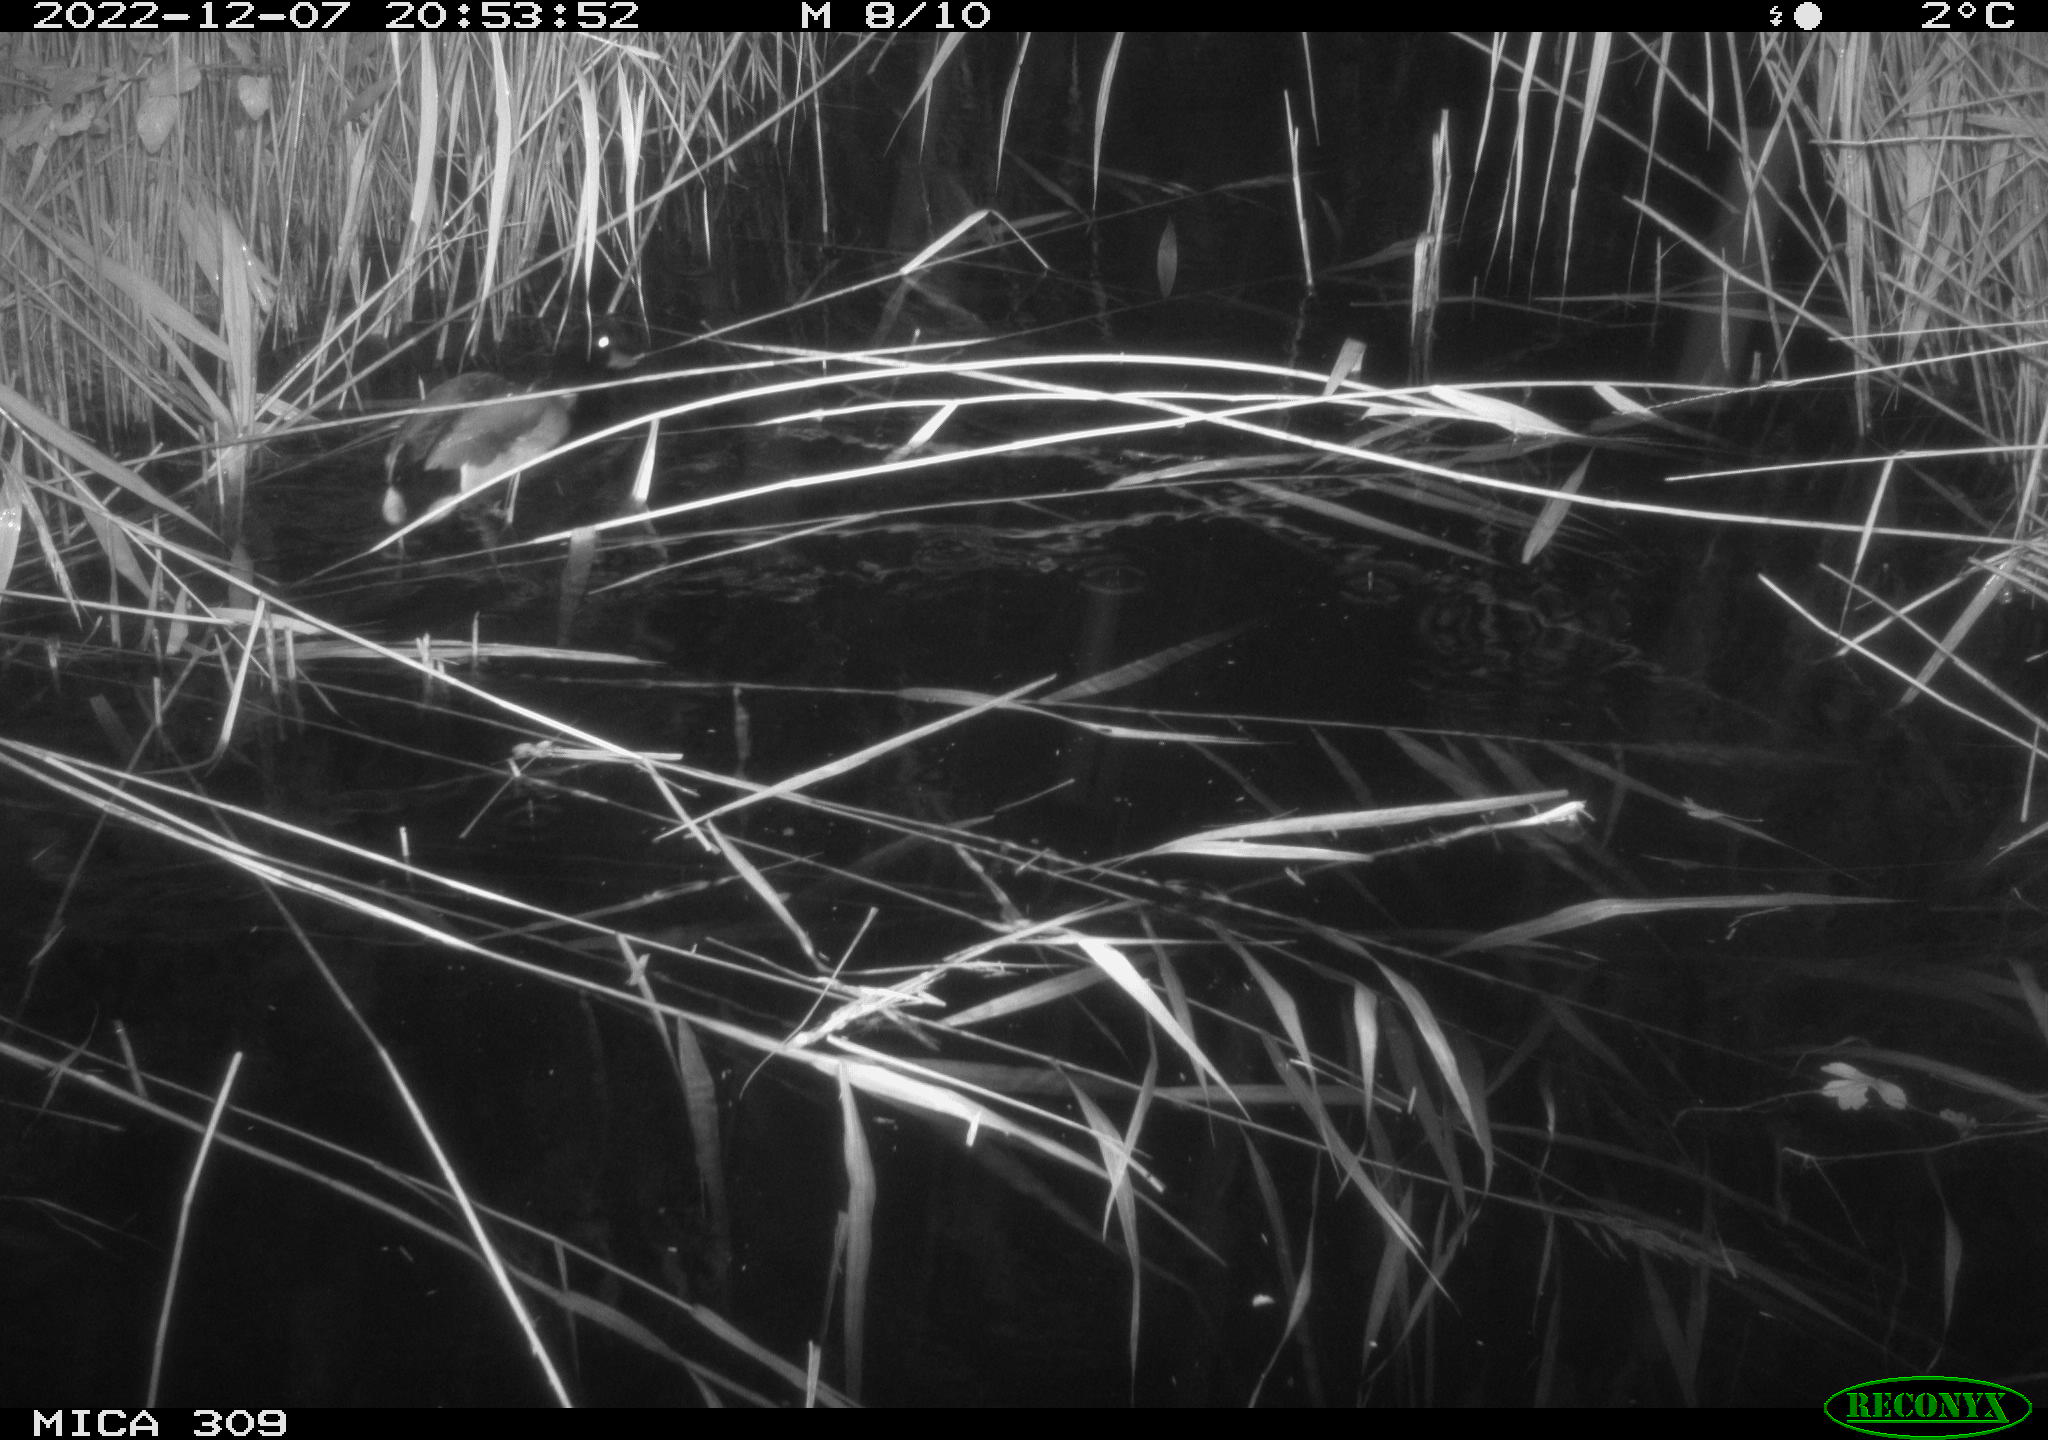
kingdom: Animalia
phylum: Chordata
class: Aves
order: Anseriformes
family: Anatidae
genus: Anas
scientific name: Anas
